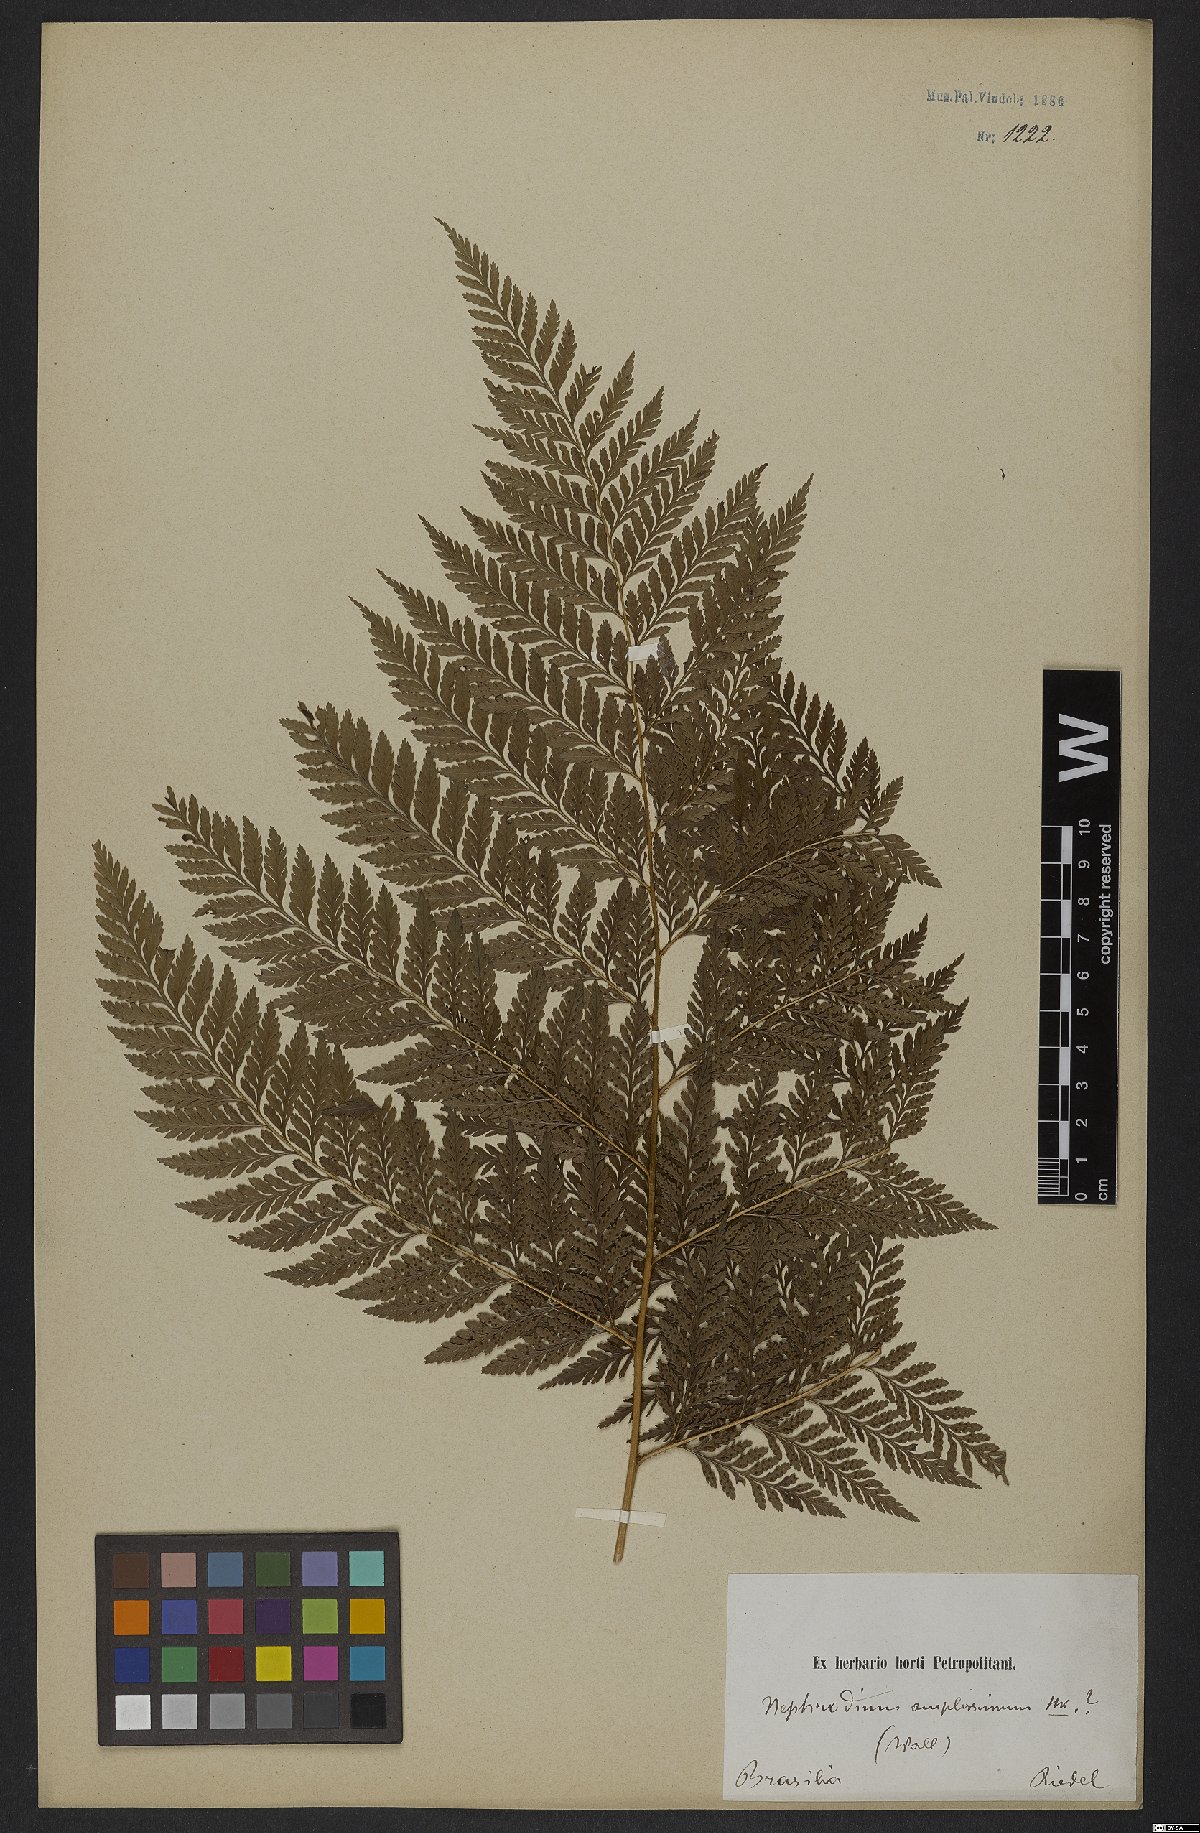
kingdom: Plantae
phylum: Tracheophyta
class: Polypodiopsida
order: Polypodiales
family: Dryopteridaceae
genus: Lastreopsis
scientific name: Lastreopsis amplissima
